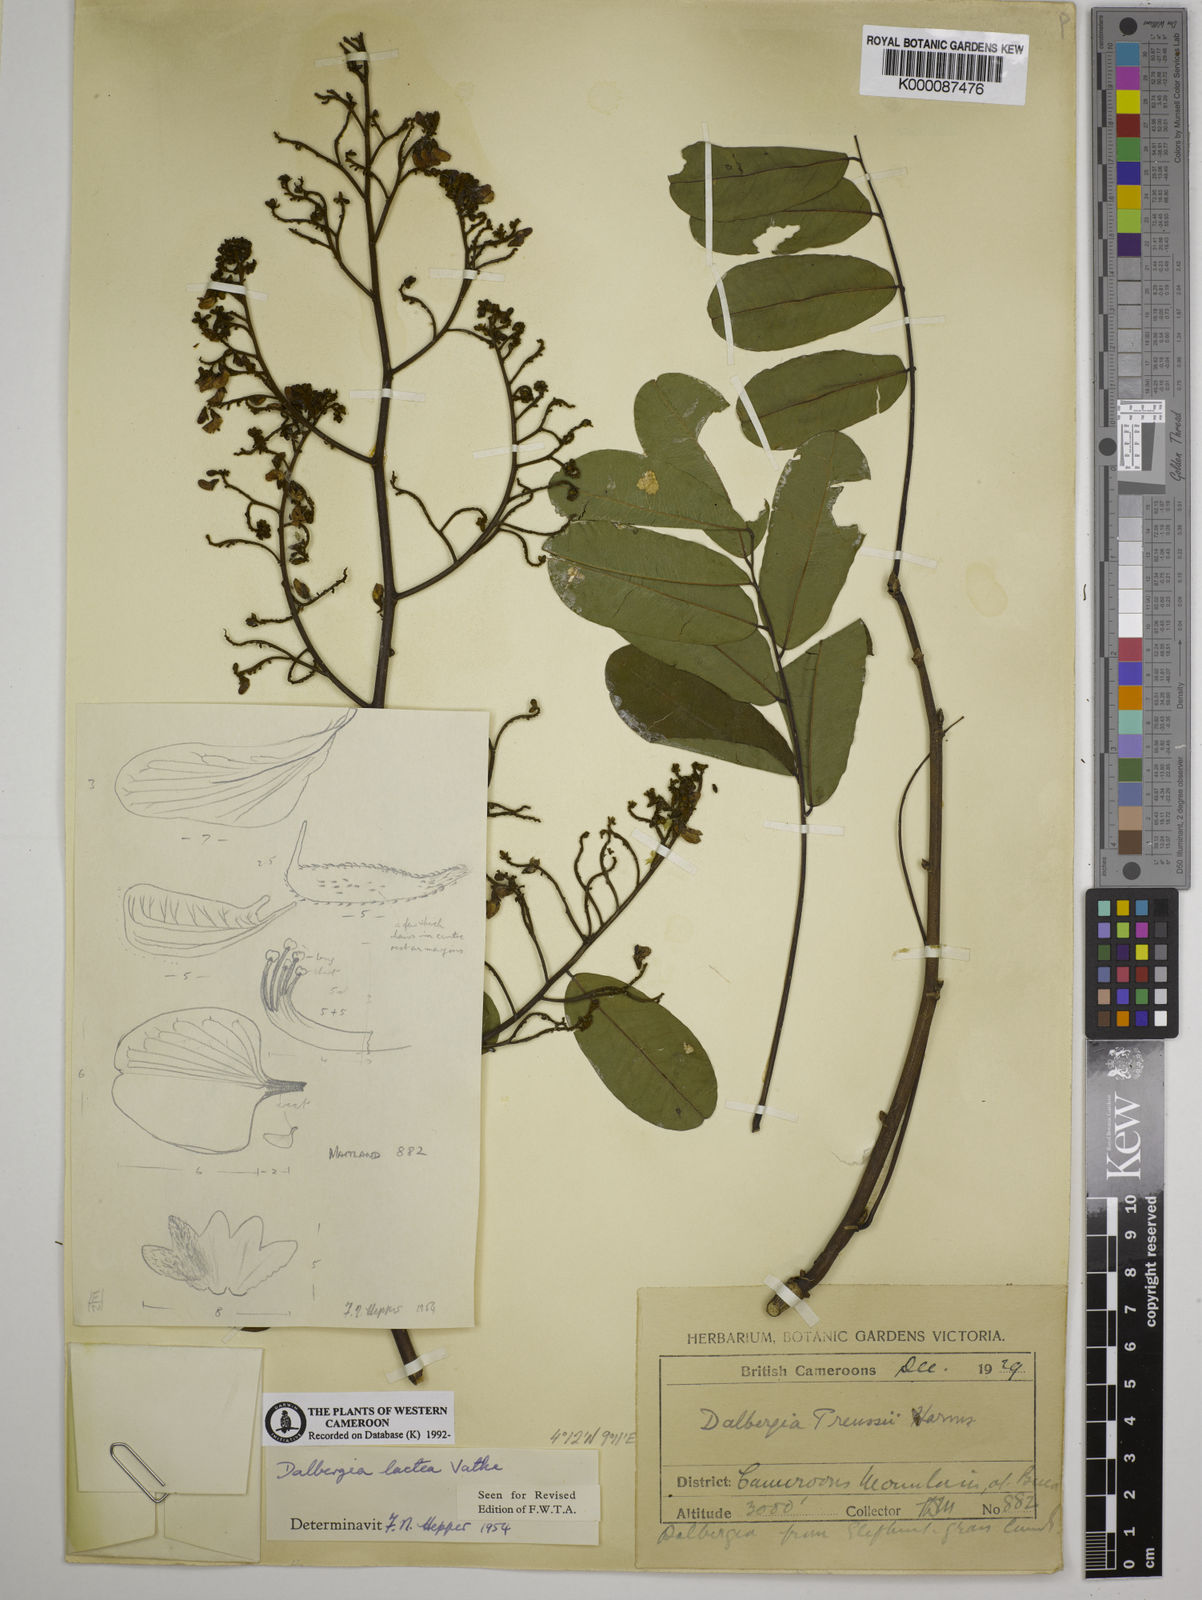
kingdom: Plantae
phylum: Tracheophyta
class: Magnoliopsida
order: Fabales
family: Fabaceae
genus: Dalbergia
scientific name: Dalbergia lactea
